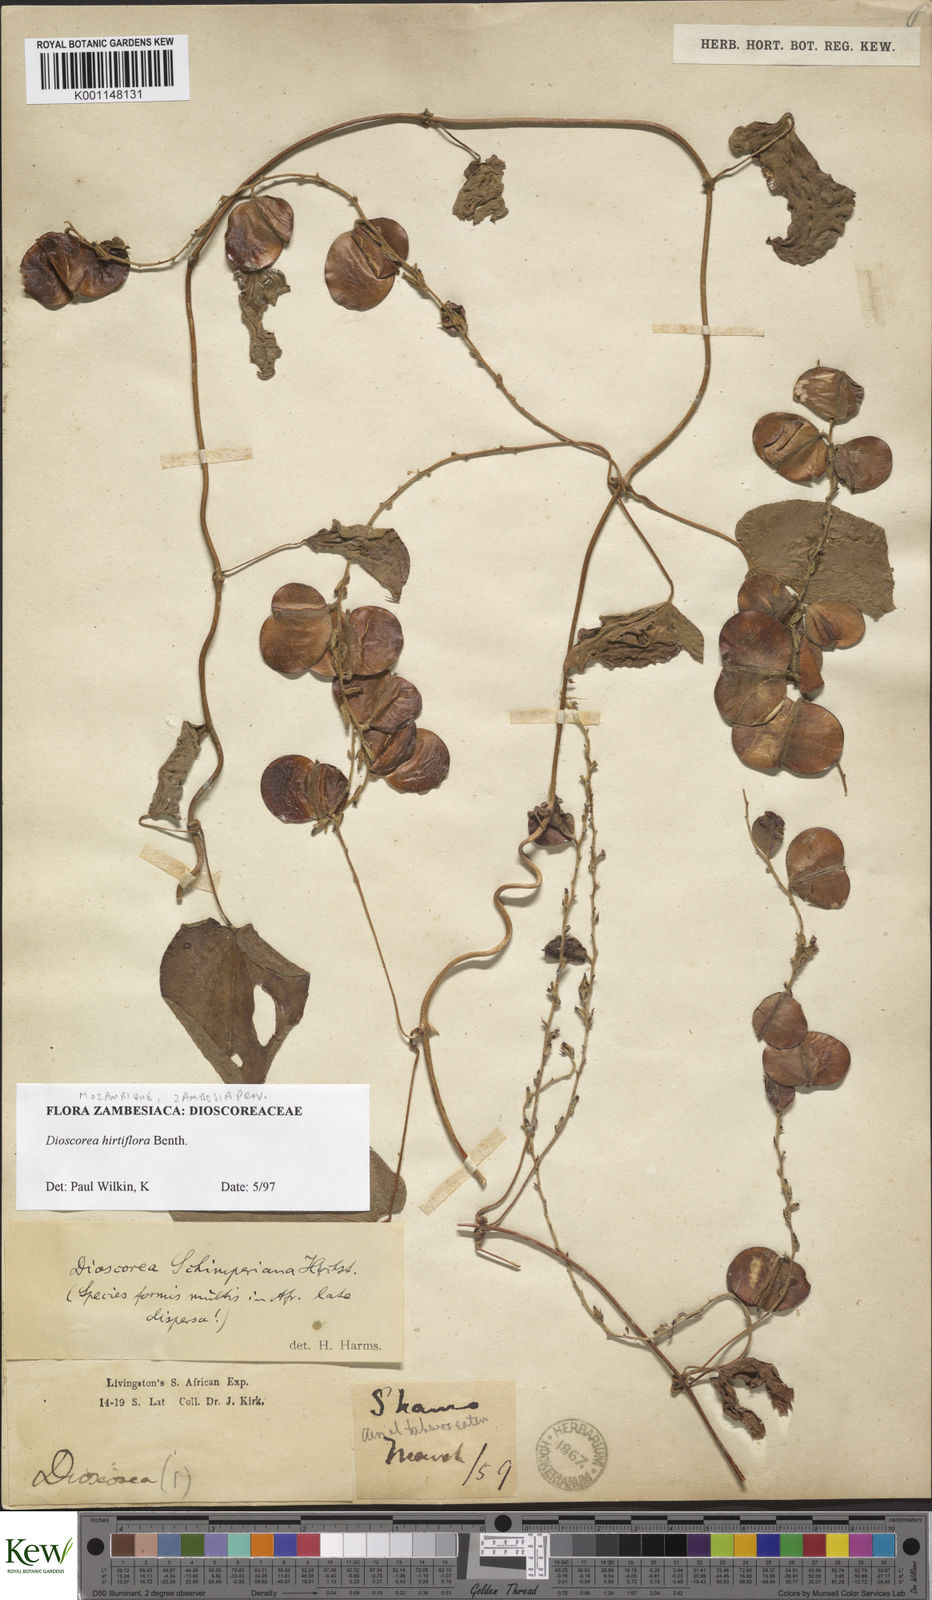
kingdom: Plantae
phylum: Tracheophyta
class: Liliopsida
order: Dioscoreales
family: Dioscoreaceae
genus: Dioscorea
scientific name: Dioscorea hirtiflora
